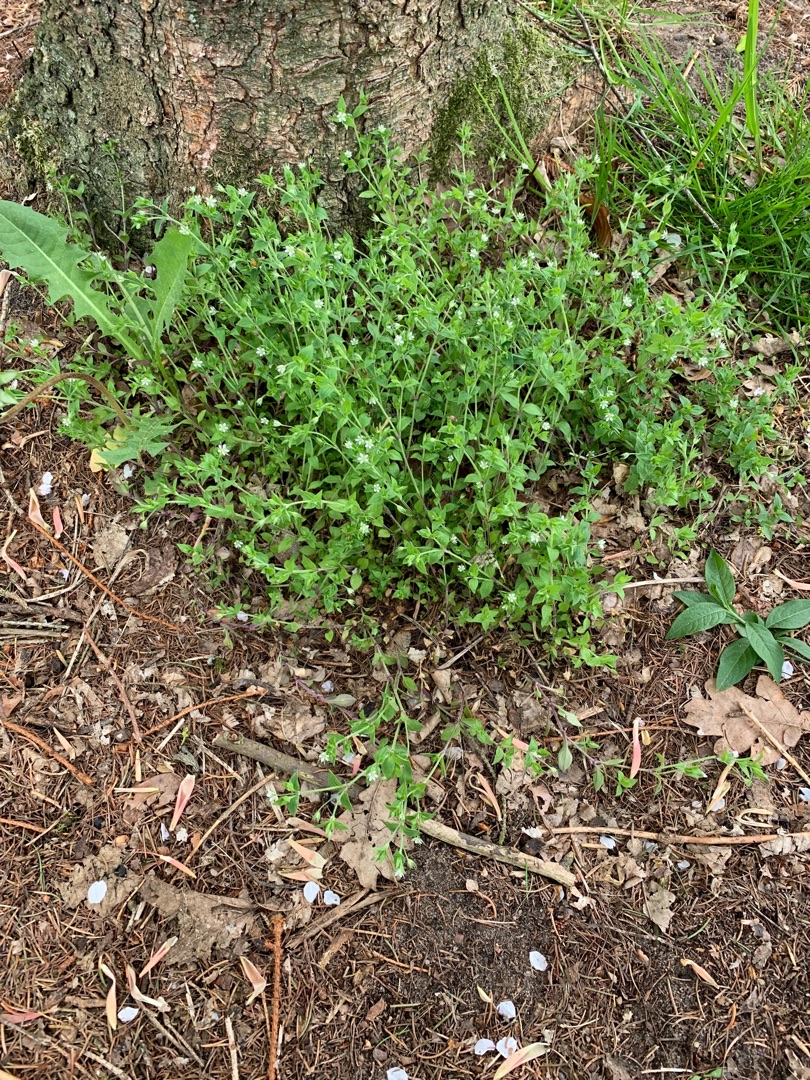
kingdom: Plantae
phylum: Tracheophyta
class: Magnoliopsida
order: Caryophyllales
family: Caryophyllaceae
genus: Moehringia
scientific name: Moehringia trinervia
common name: Skovarve
